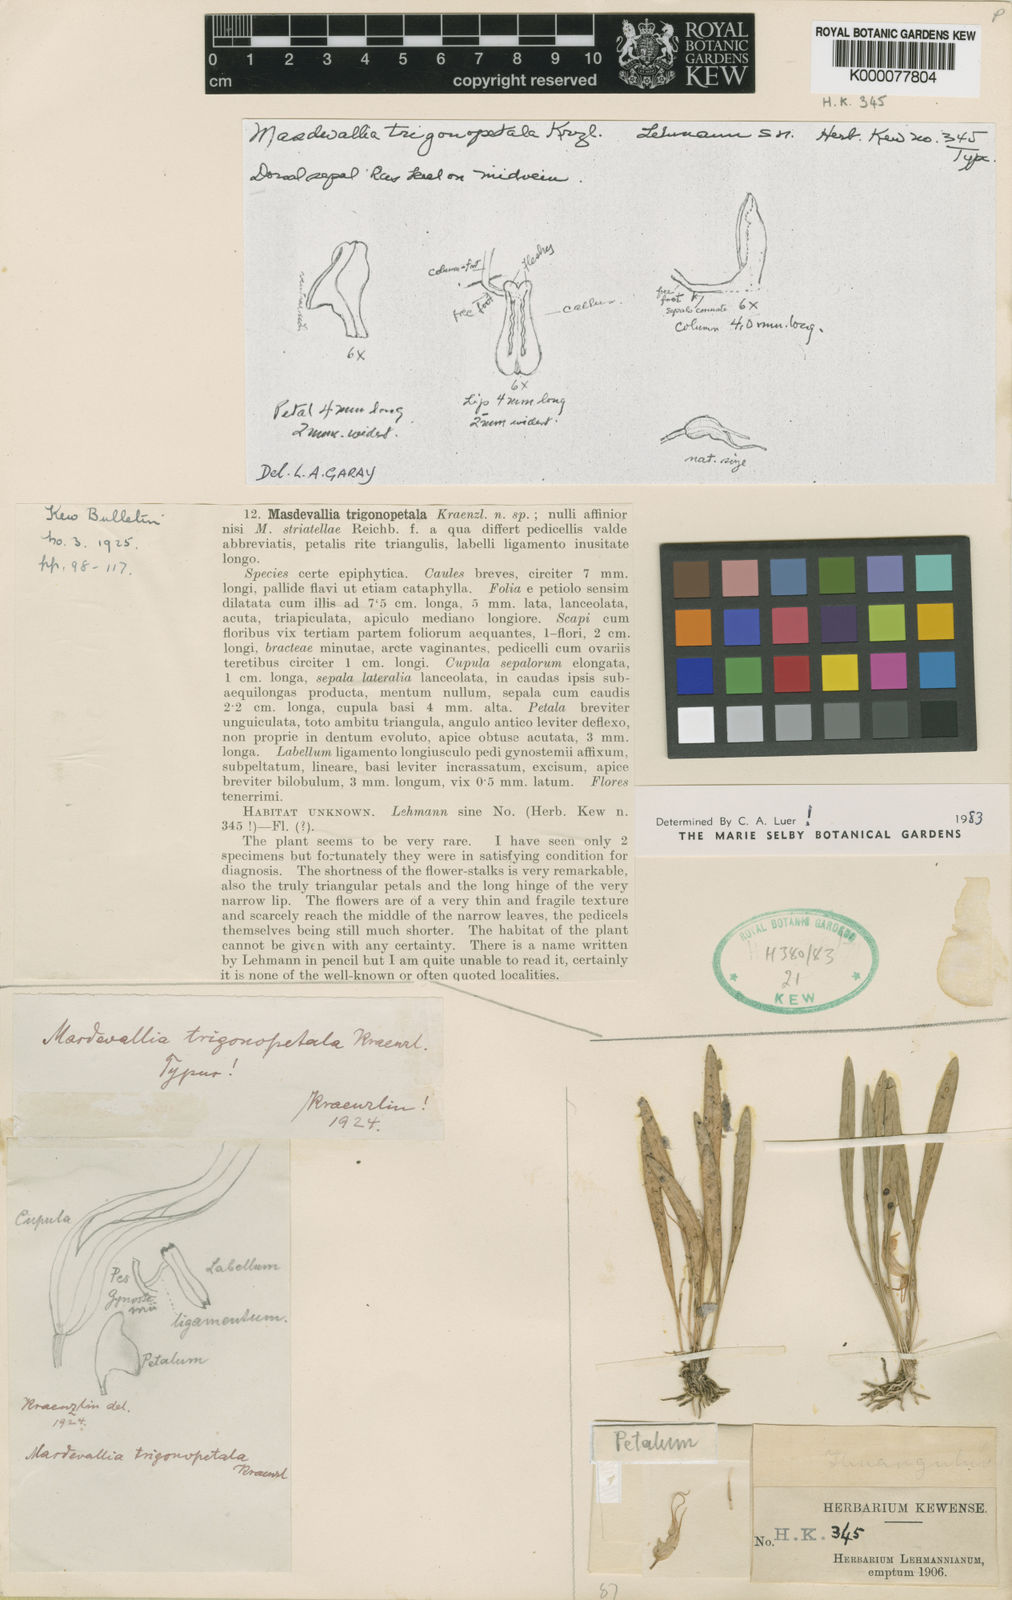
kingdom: Plantae
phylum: Tracheophyta
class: Liliopsida
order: Asparagales
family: Orchidaceae
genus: Masdevallia
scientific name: Masdevallia trigonopetala
